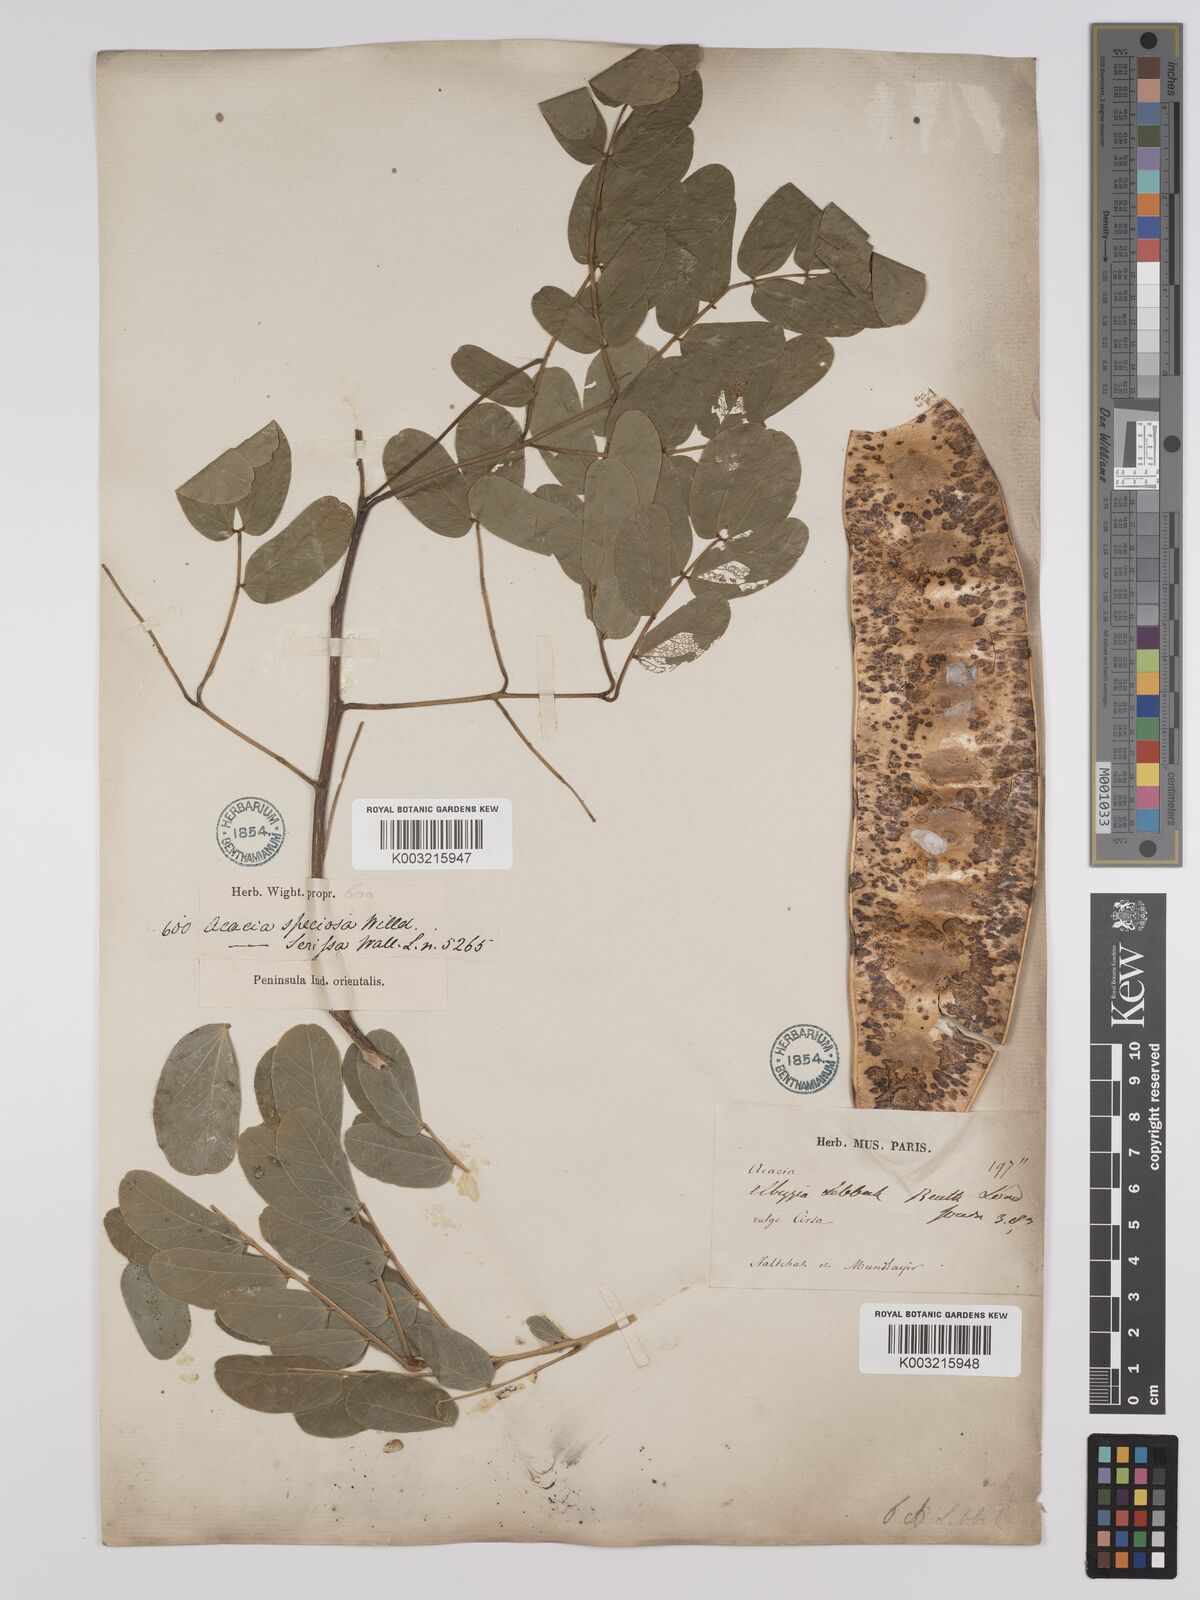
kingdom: Plantae
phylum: Tracheophyta
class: Magnoliopsida
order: Fabales
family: Fabaceae
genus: Albizia
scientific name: Albizia
